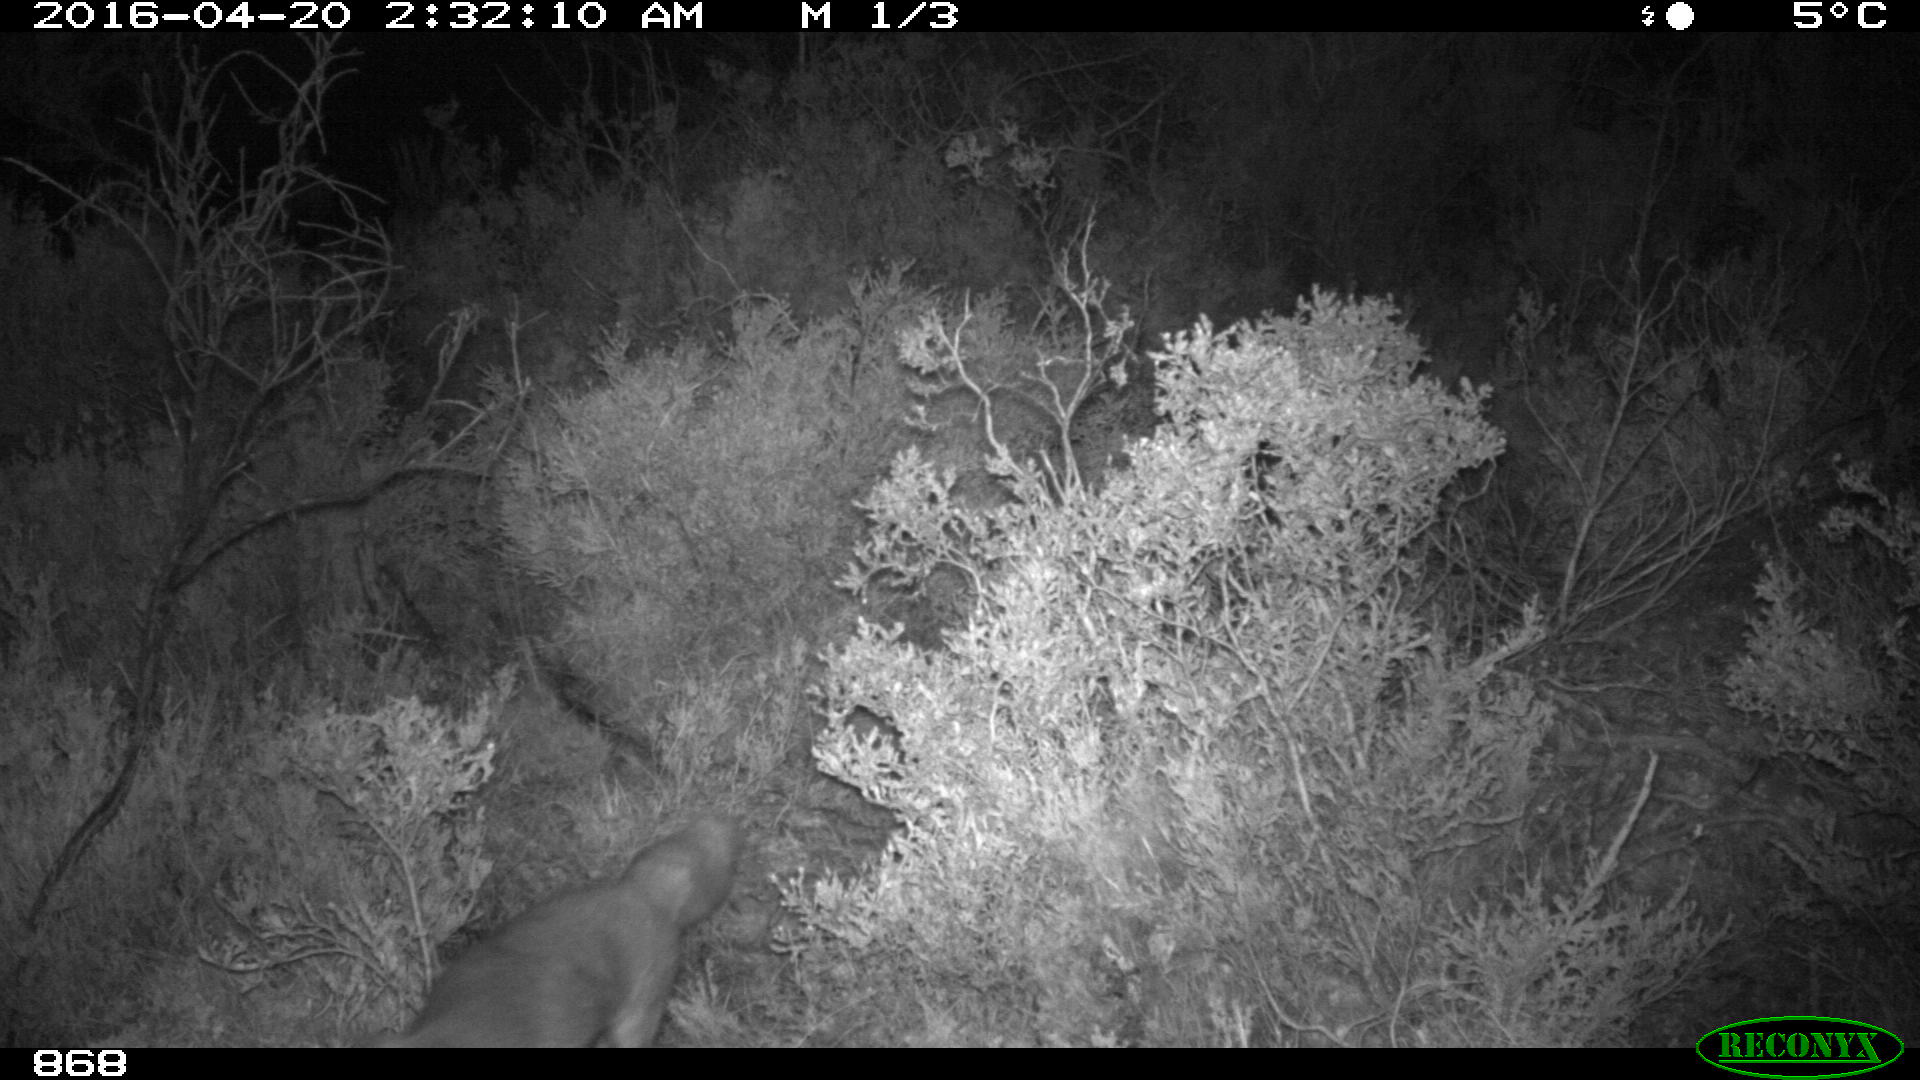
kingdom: Animalia
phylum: Chordata
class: Mammalia
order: Carnivora
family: Canidae
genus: Vulpes
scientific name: Vulpes vulpes
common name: Red fox
